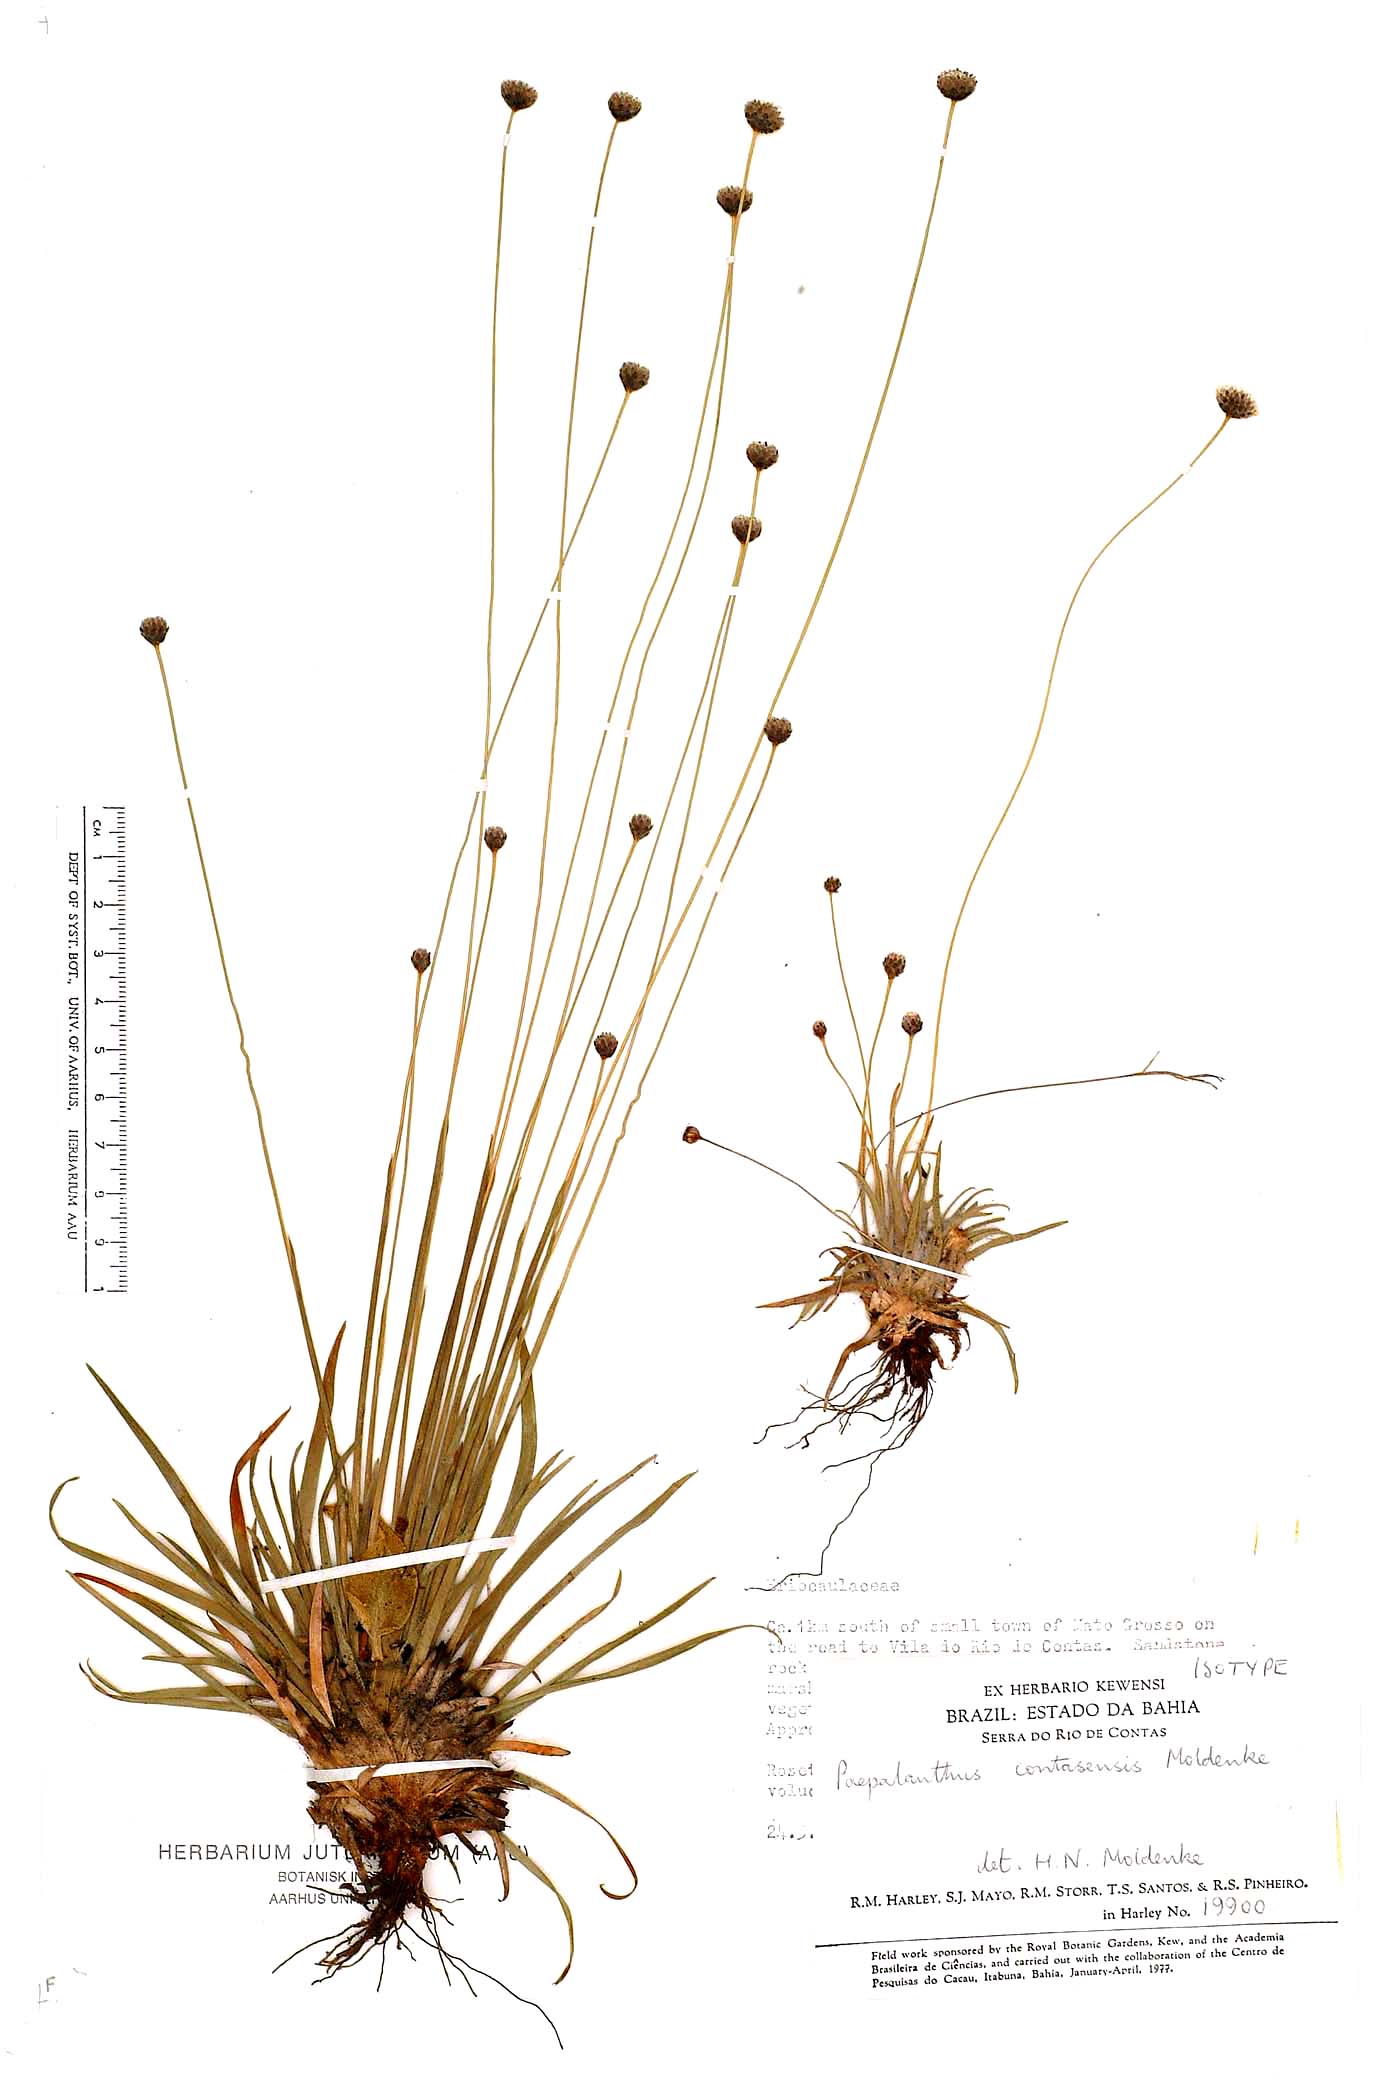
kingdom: Plantae
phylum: Tracheophyta
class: Liliopsida
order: Poales
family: Eriocaulaceae
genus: Paepalanthus
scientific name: Paepalanthus contasensis
